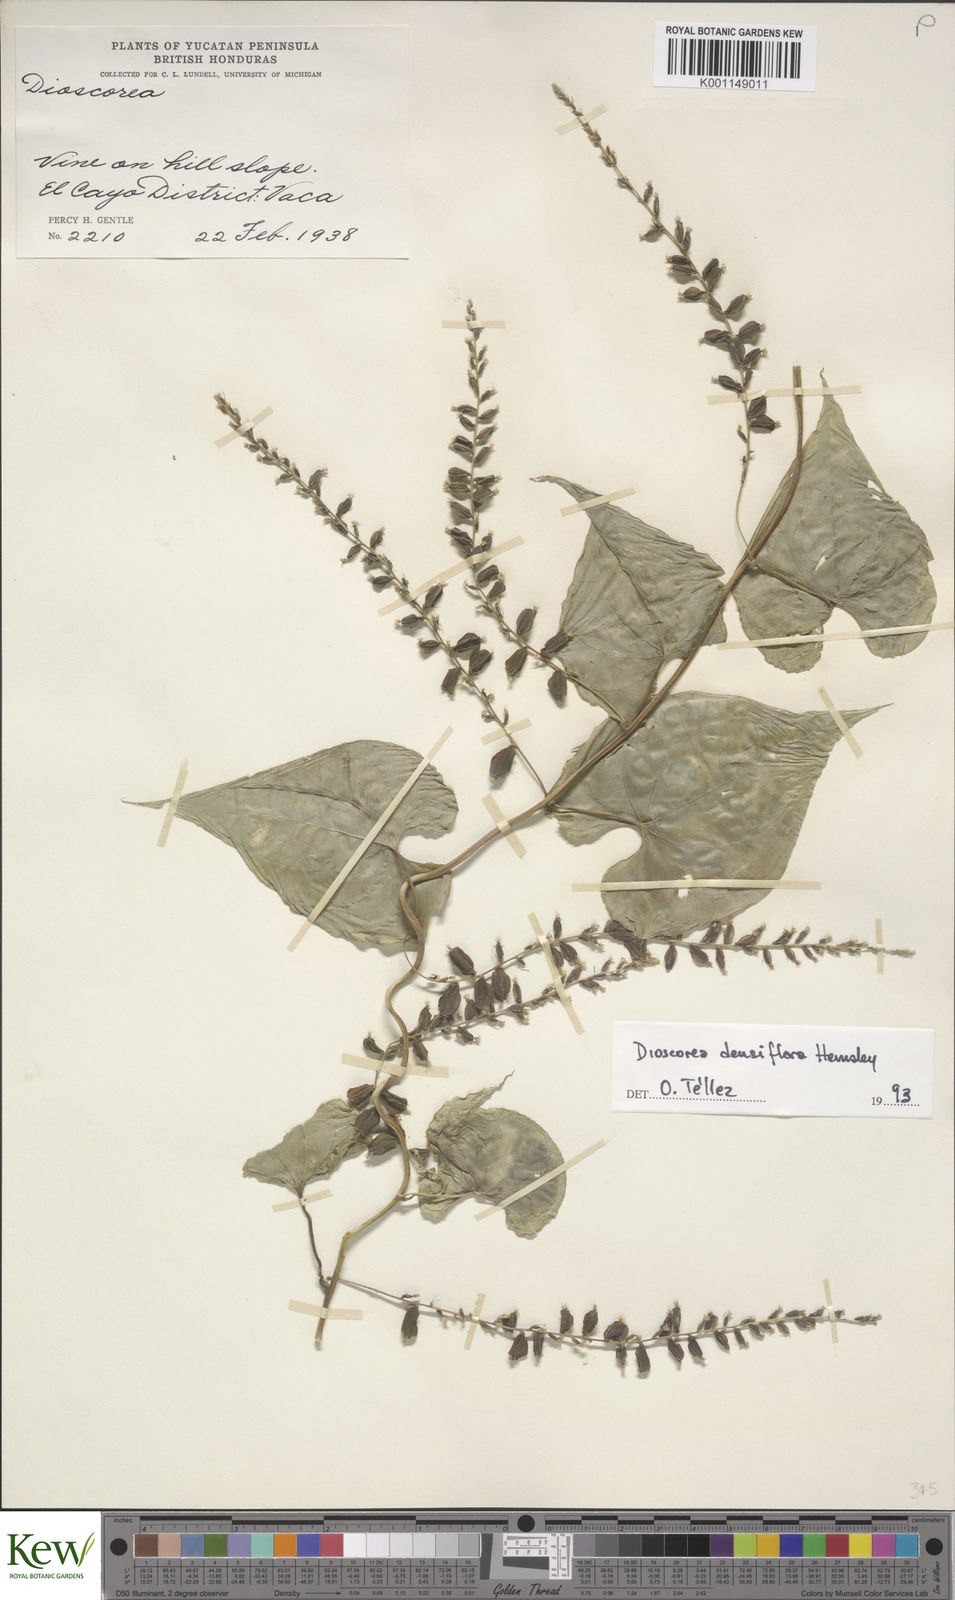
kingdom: Plantae
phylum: Tracheophyta
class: Liliopsida
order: Dioscoreales
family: Dioscoreaceae
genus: Dioscorea
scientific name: Dioscorea densiflora
